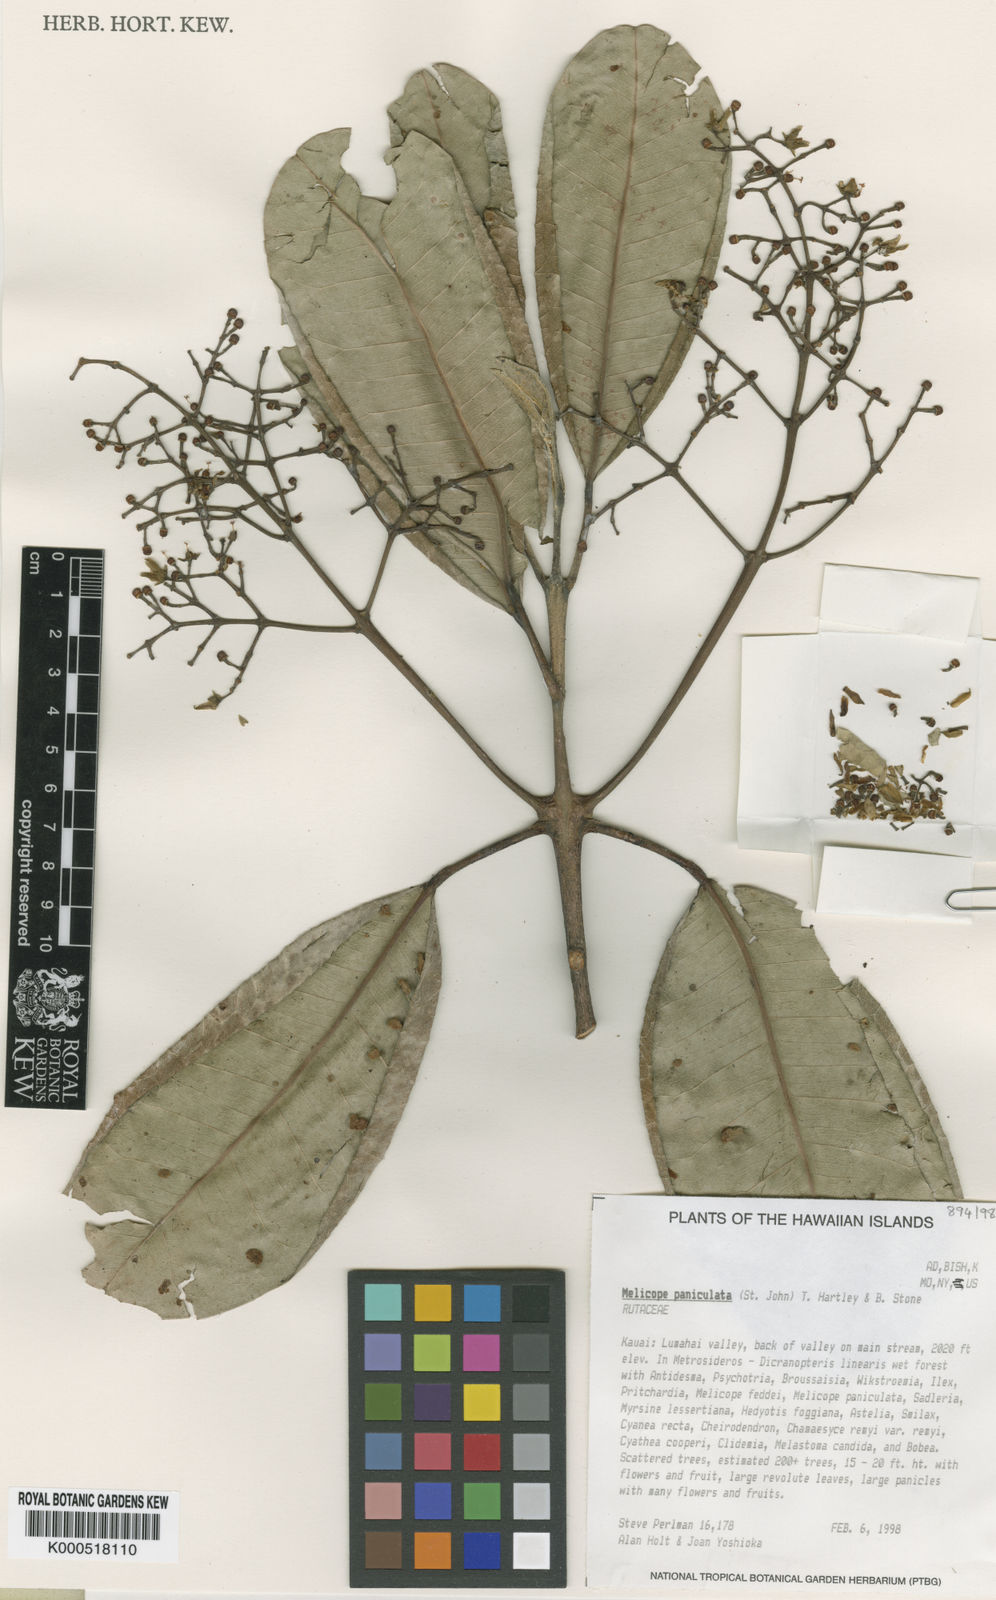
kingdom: Plantae
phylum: Tracheophyta
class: Magnoliopsida
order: Sapindales
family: Rutaceae
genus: Melicope
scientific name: Melicope paniculata
